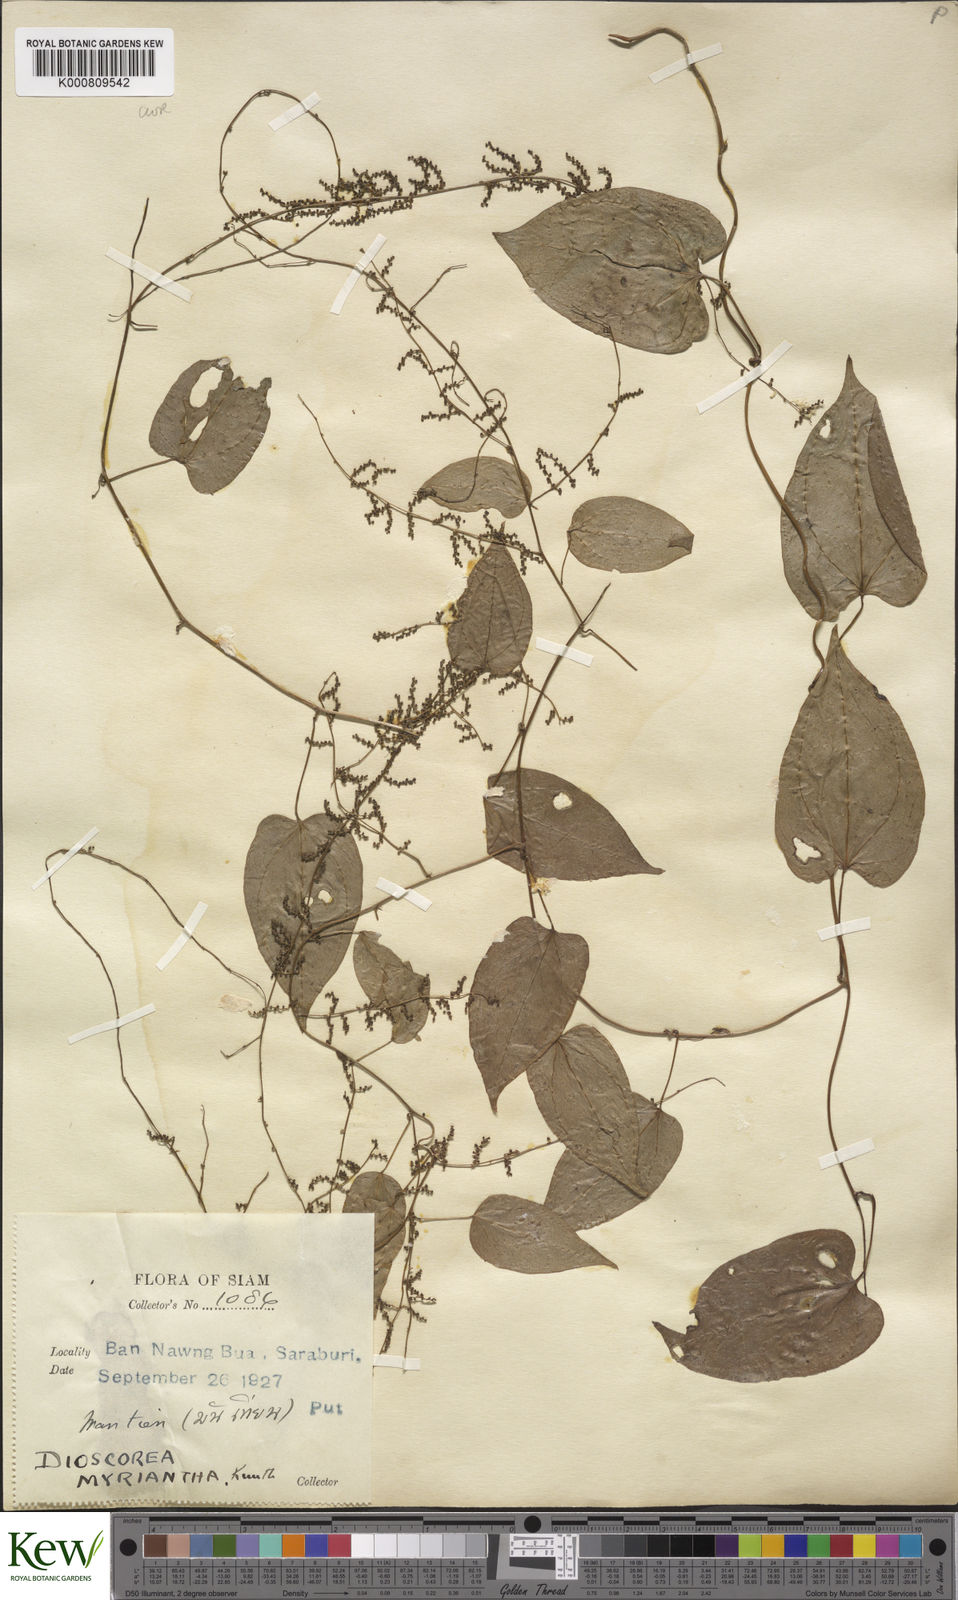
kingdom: Plantae
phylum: Tracheophyta
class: Liliopsida
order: Dioscoreales
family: Dioscoreaceae
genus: Dioscorea
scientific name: Dioscorea filiformis
